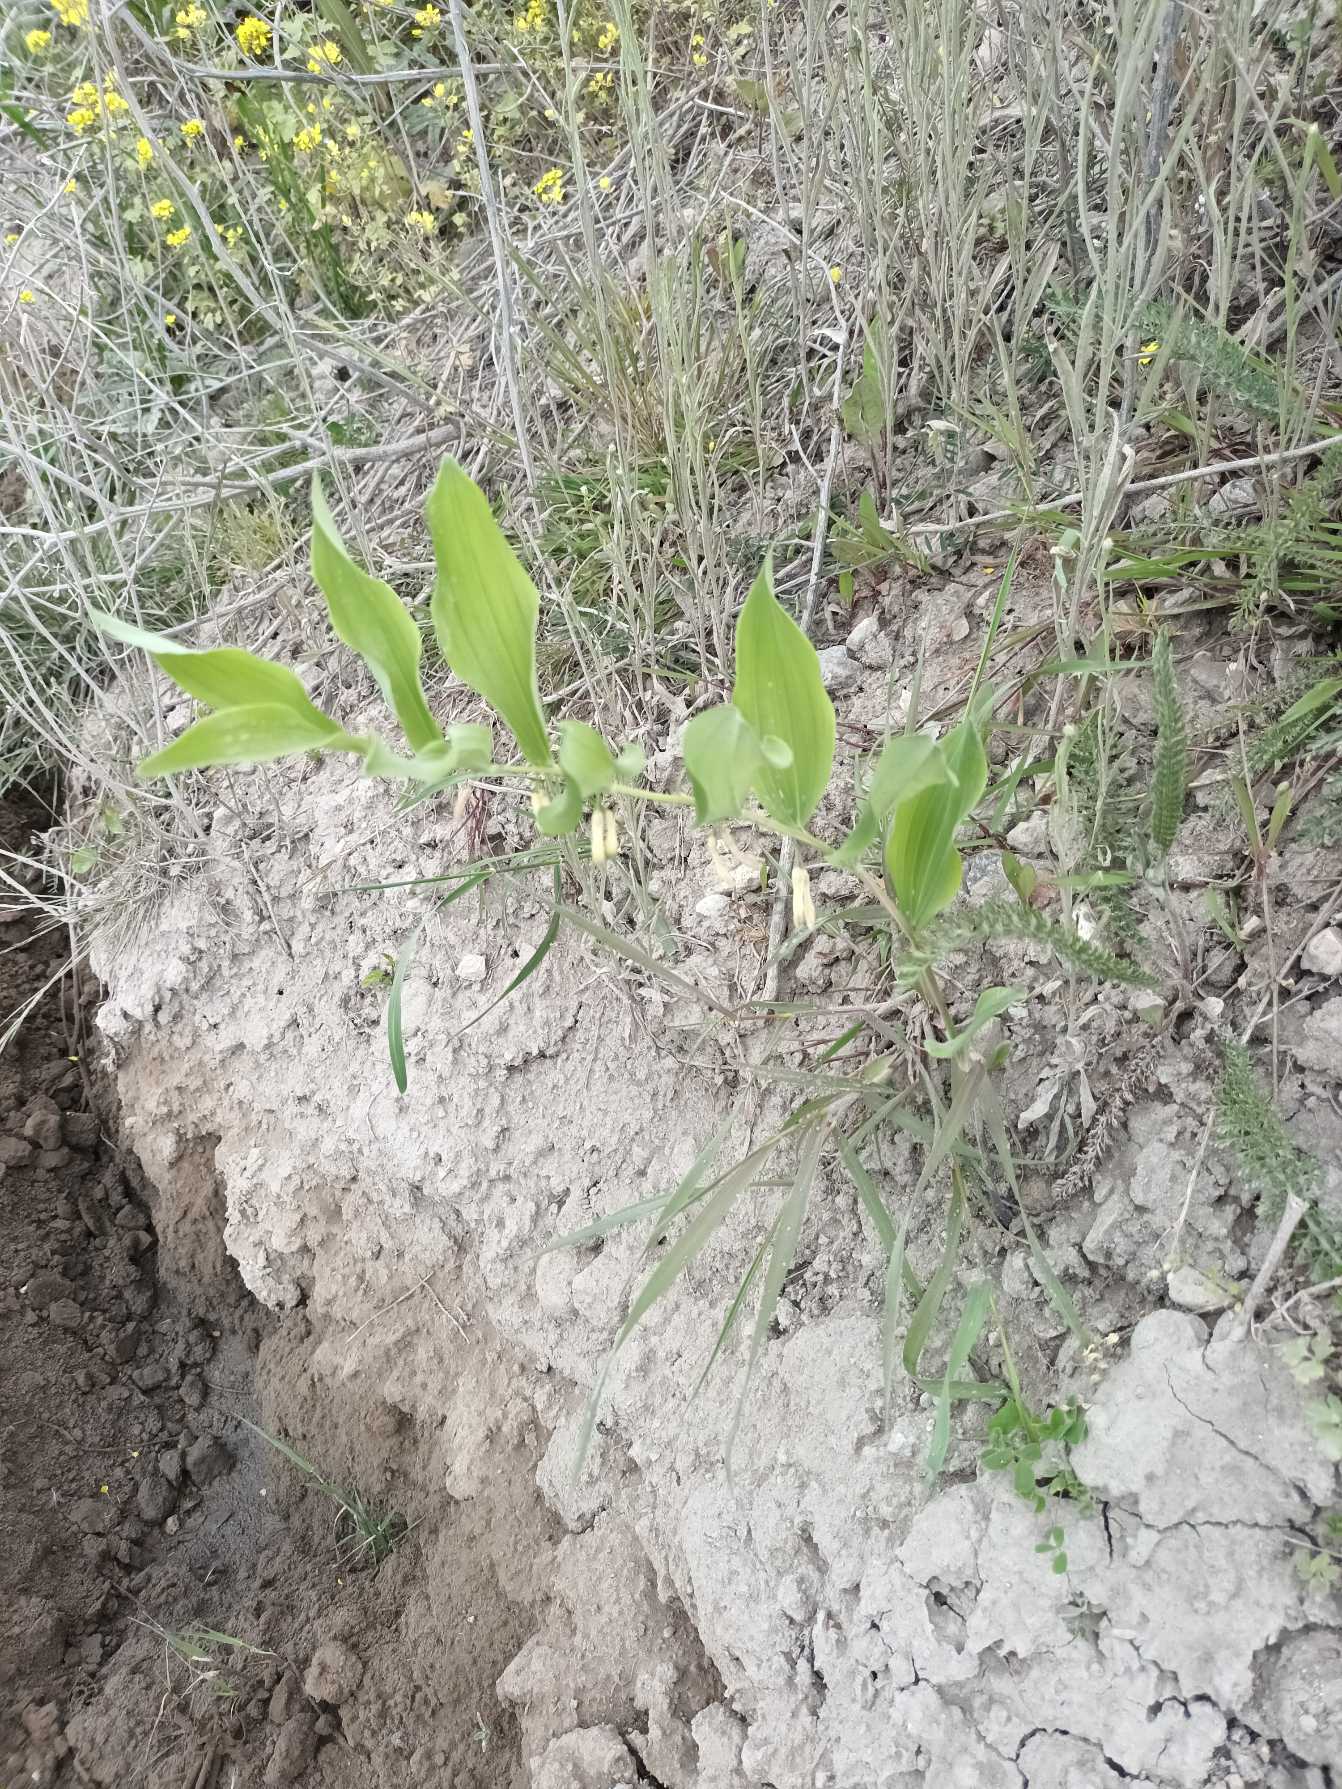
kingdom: Plantae
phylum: Tracheophyta
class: Liliopsida
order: Asparagales
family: Asparagaceae
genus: Polygonatum
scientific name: Polygonatum
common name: Hybrid-konval
